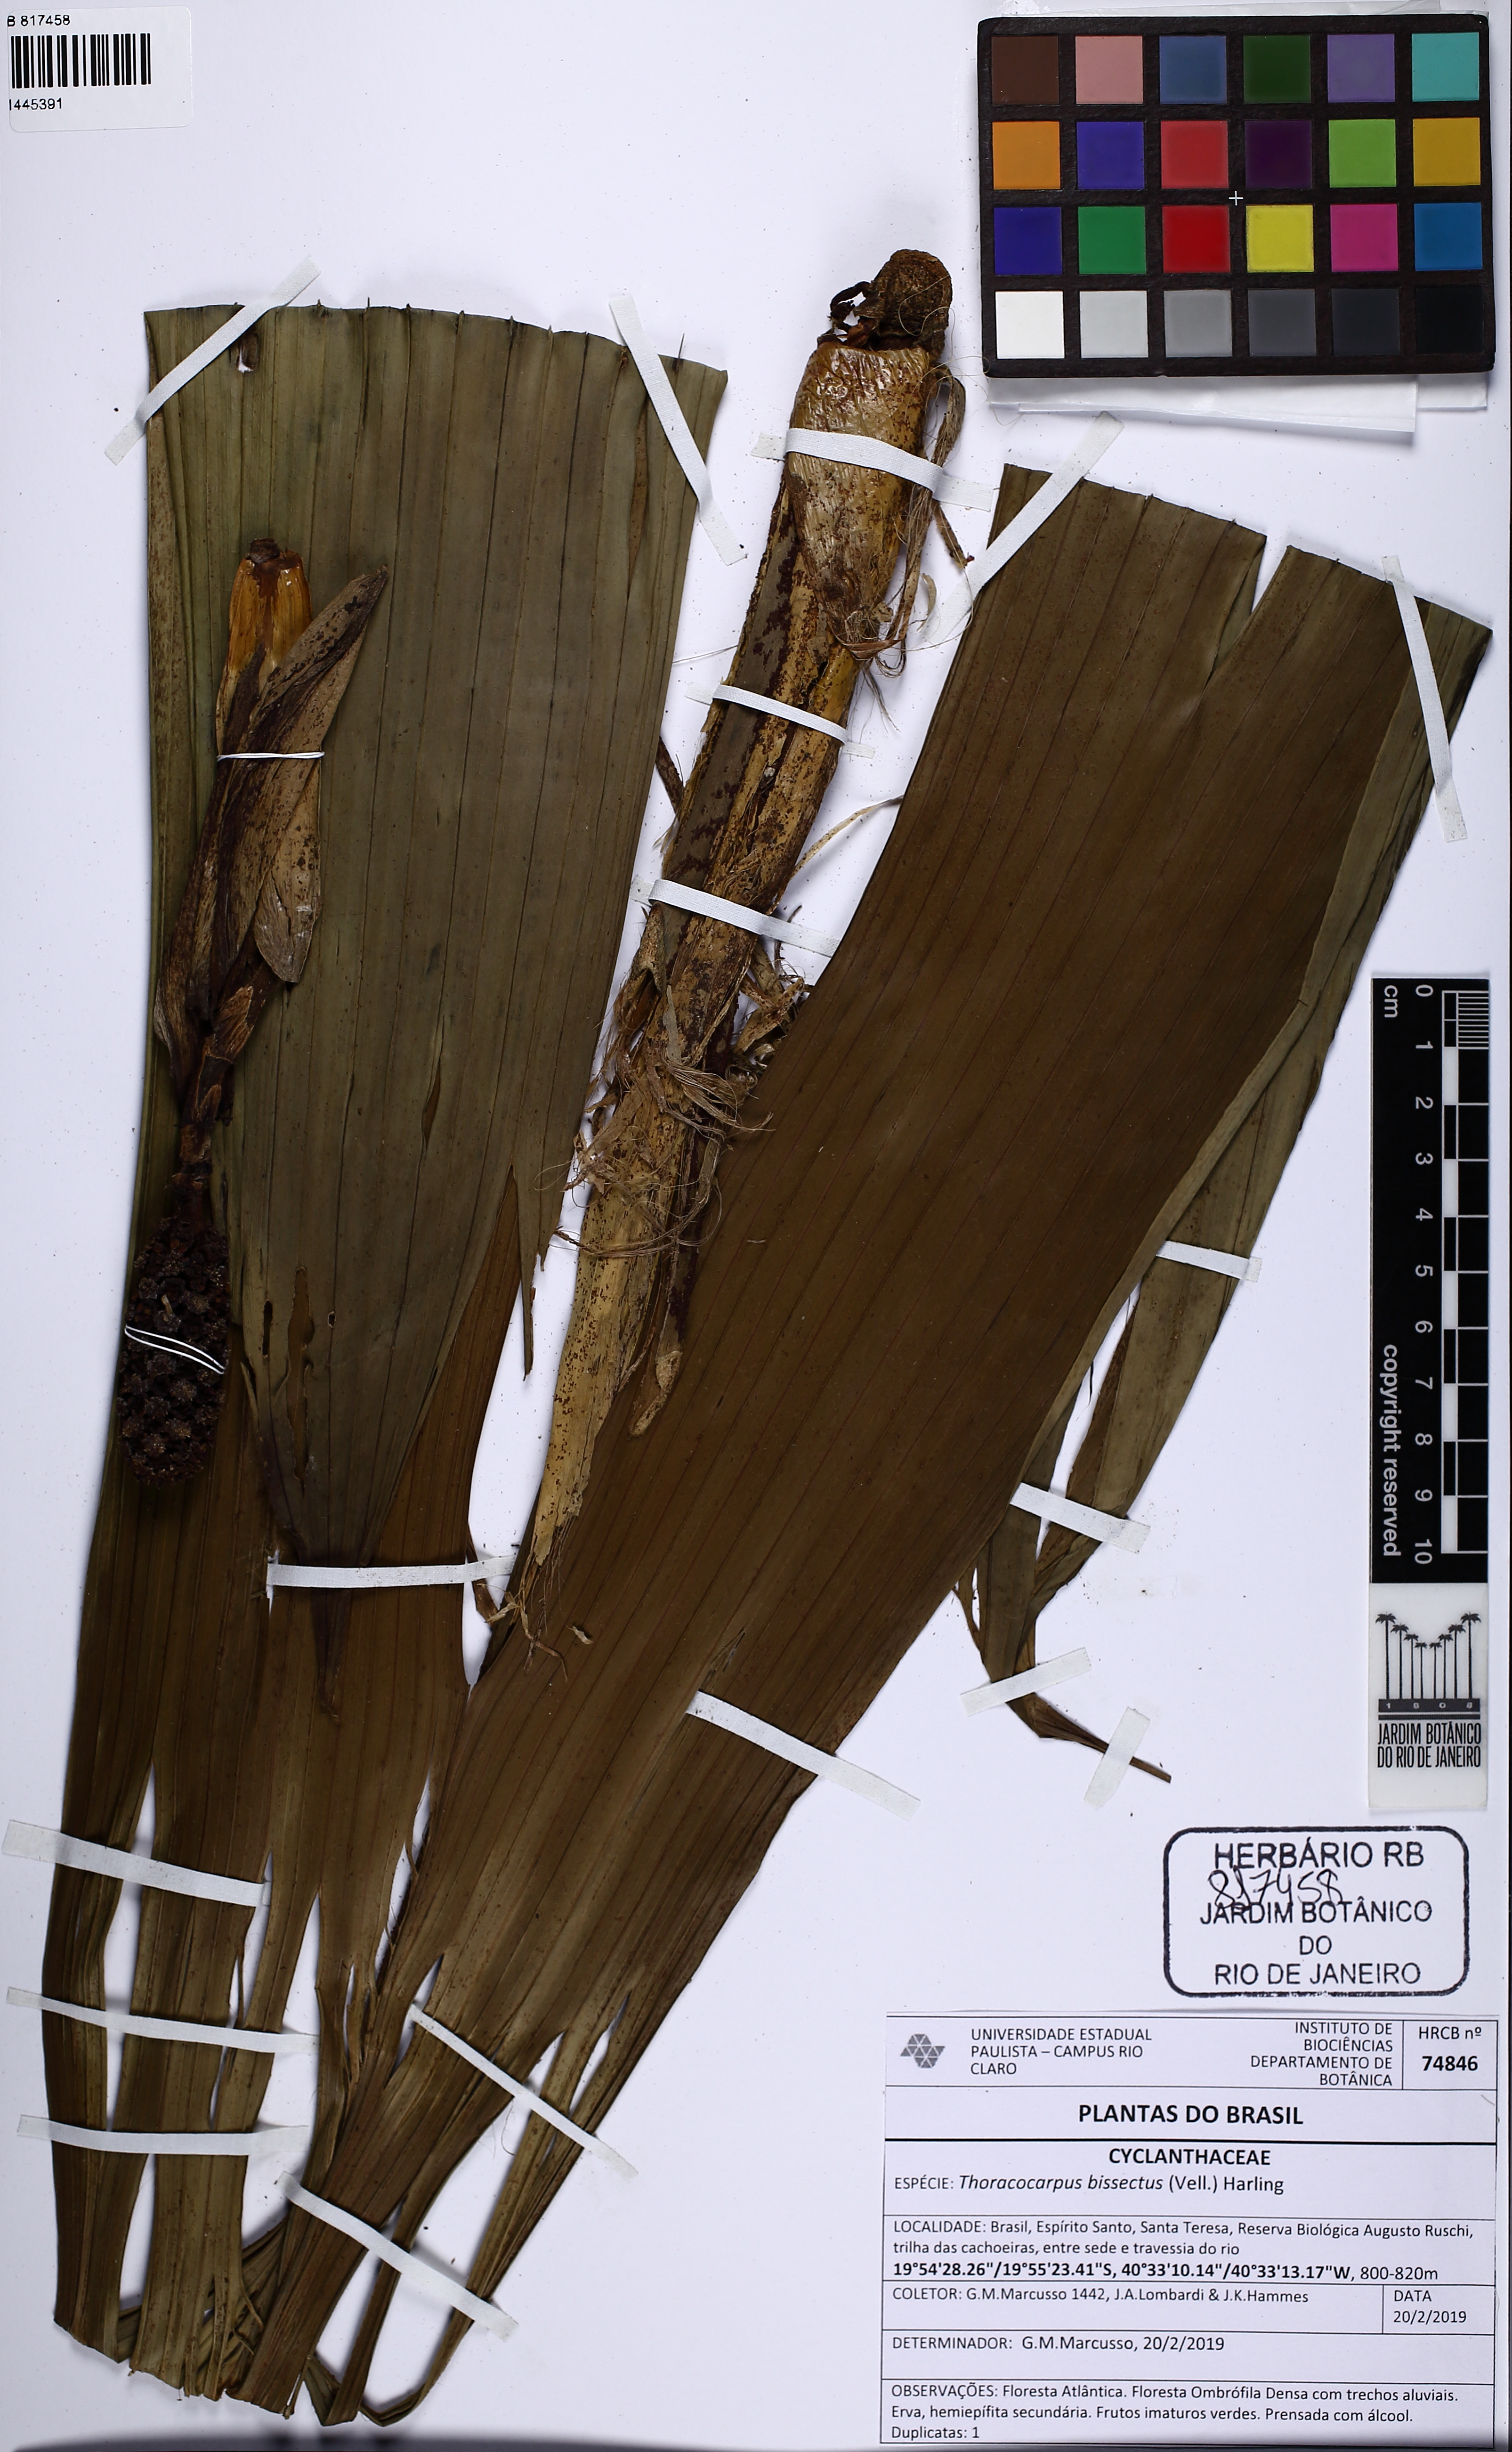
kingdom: Plantae
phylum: Tracheophyta
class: Liliopsida
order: Pandanales
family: Cyclanthaceae
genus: Thoracocarpus
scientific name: Thoracocarpus bissectus
